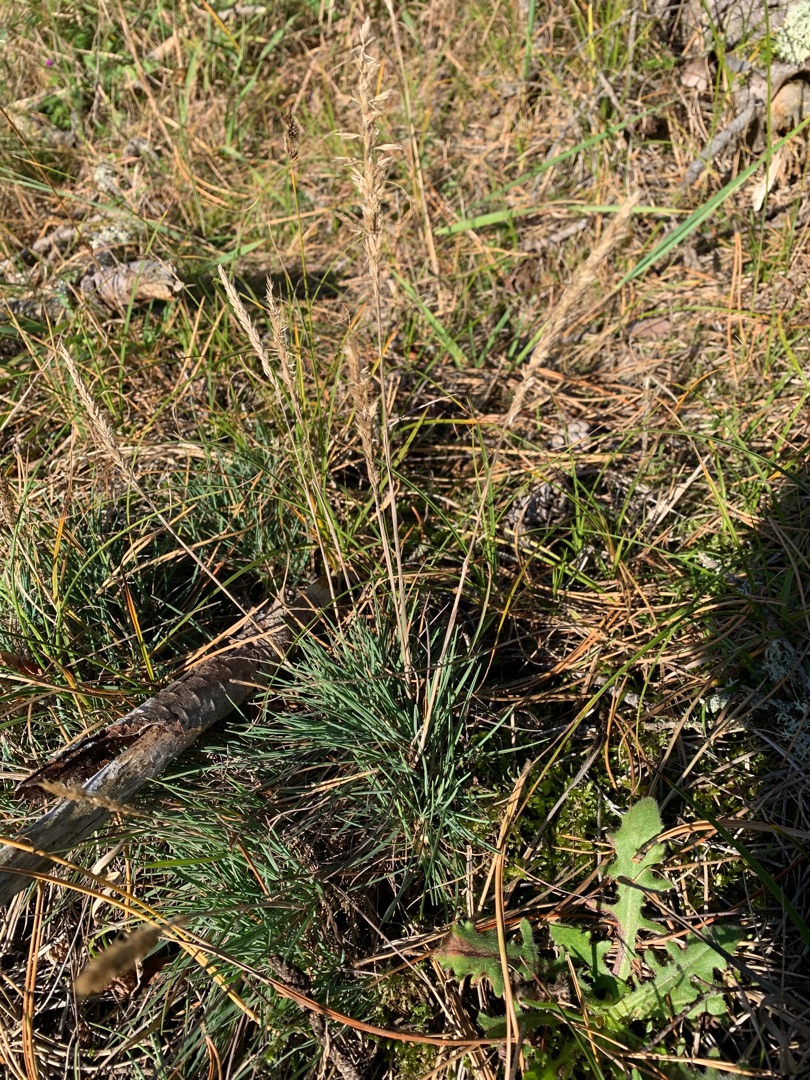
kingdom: Plantae
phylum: Tracheophyta
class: Liliopsida
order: Poales
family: Poaceae
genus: Koeleria
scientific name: Koeleria glauca
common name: Klit-kambunke
